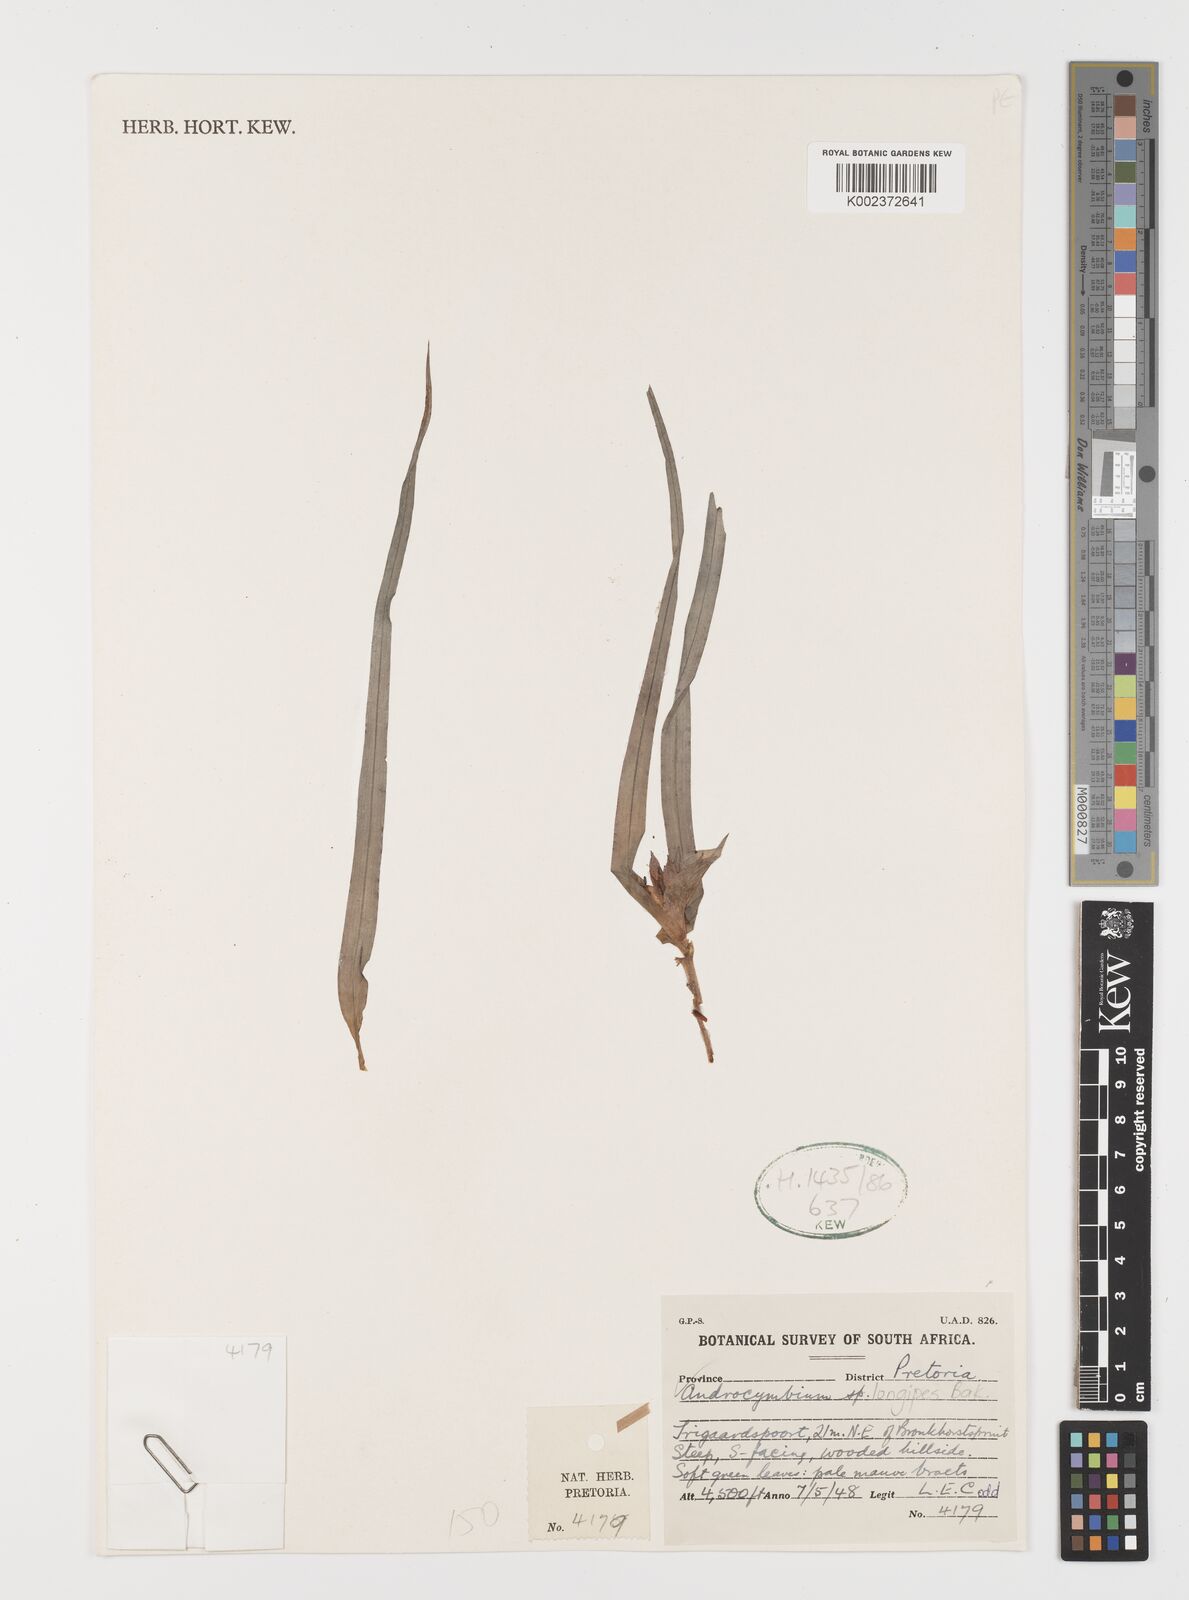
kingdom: Plantae
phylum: Tracheophyta
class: Liliopsida
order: Liliales
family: Colchicaceae
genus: Colchicum
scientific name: Colchicum burkei
